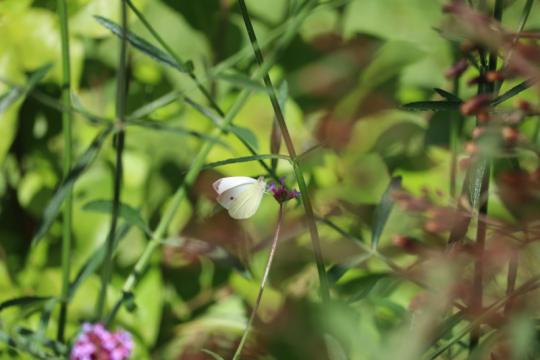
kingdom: Animalia
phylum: Arthropoda
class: Insecta
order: Lepidoptera
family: Pieridae
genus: Pieris
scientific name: Pieris rapae
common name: Cabbage White
